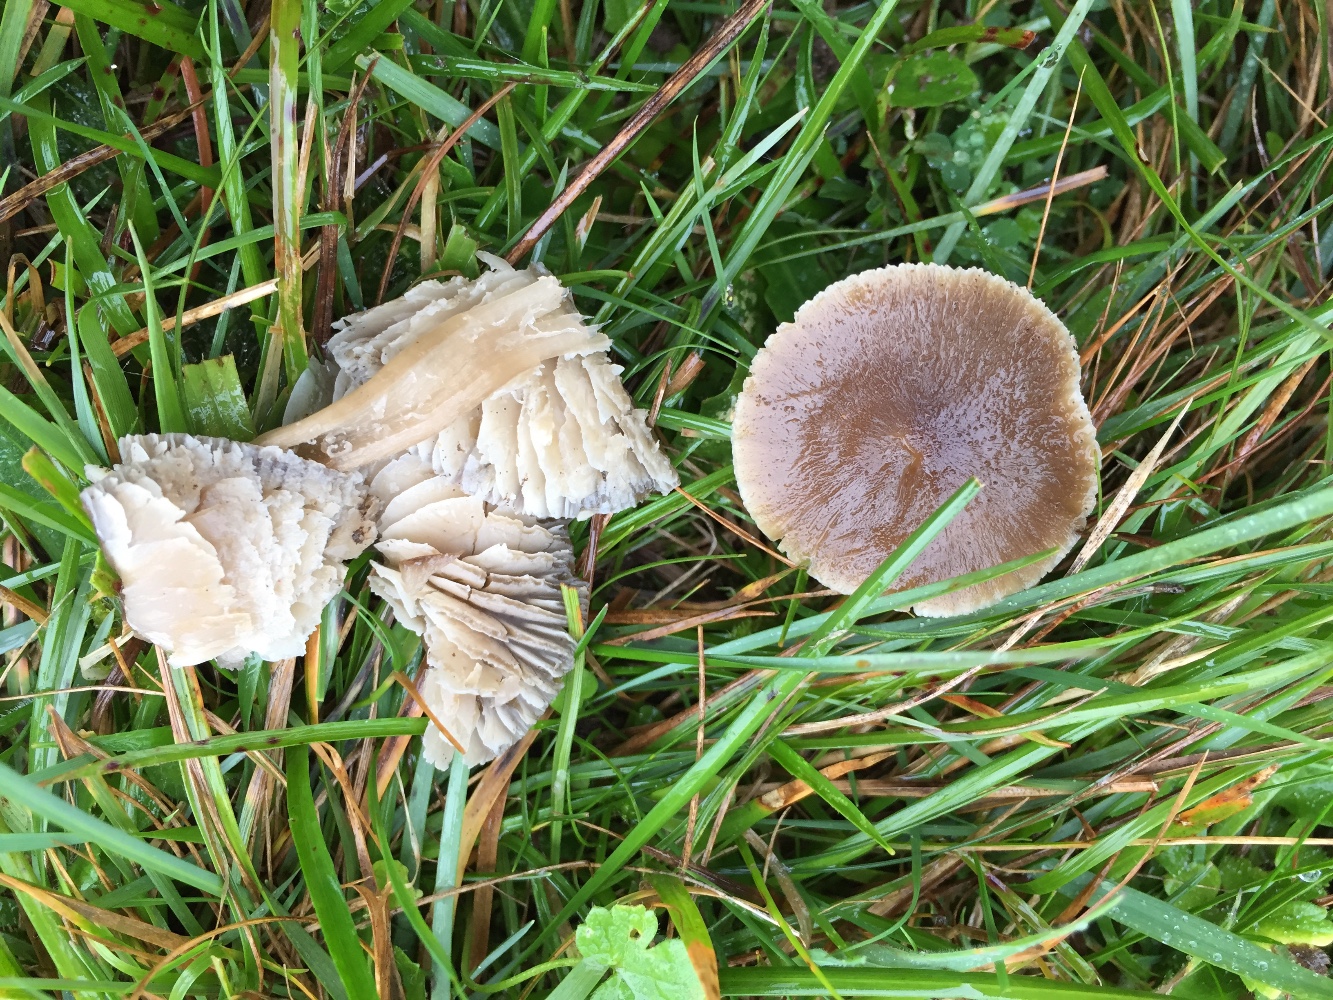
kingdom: Fungi
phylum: Basidiomycota
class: Agaricomycetes
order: Agaricales
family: Hygrophoraceae
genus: Neohygrocybe
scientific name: Neohygrocybe nitrata
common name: stinkende vokshat
